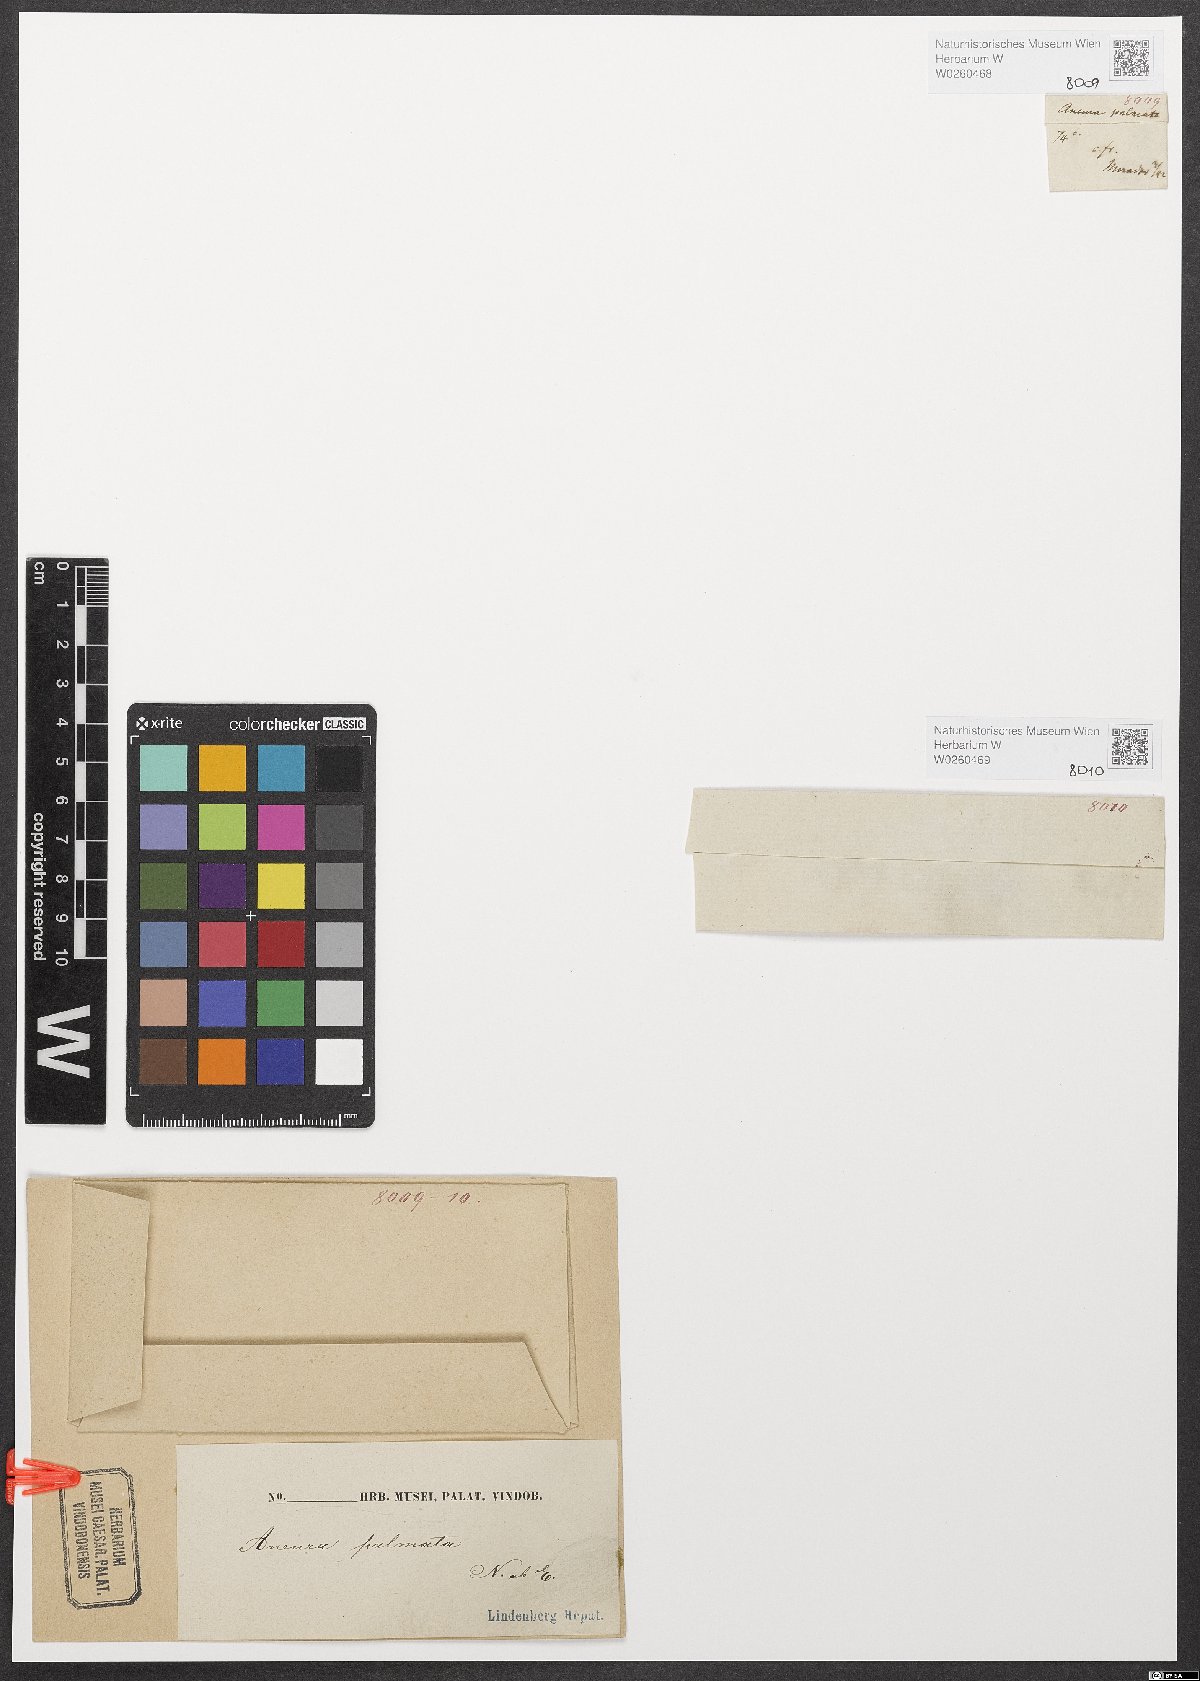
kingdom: Plantae
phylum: Marchantiophyta
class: Jungermanniopsida
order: Metzgeriales
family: Aneuraceae
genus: Riccardia
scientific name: Riccardia palmata
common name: Palmate germanderwort
